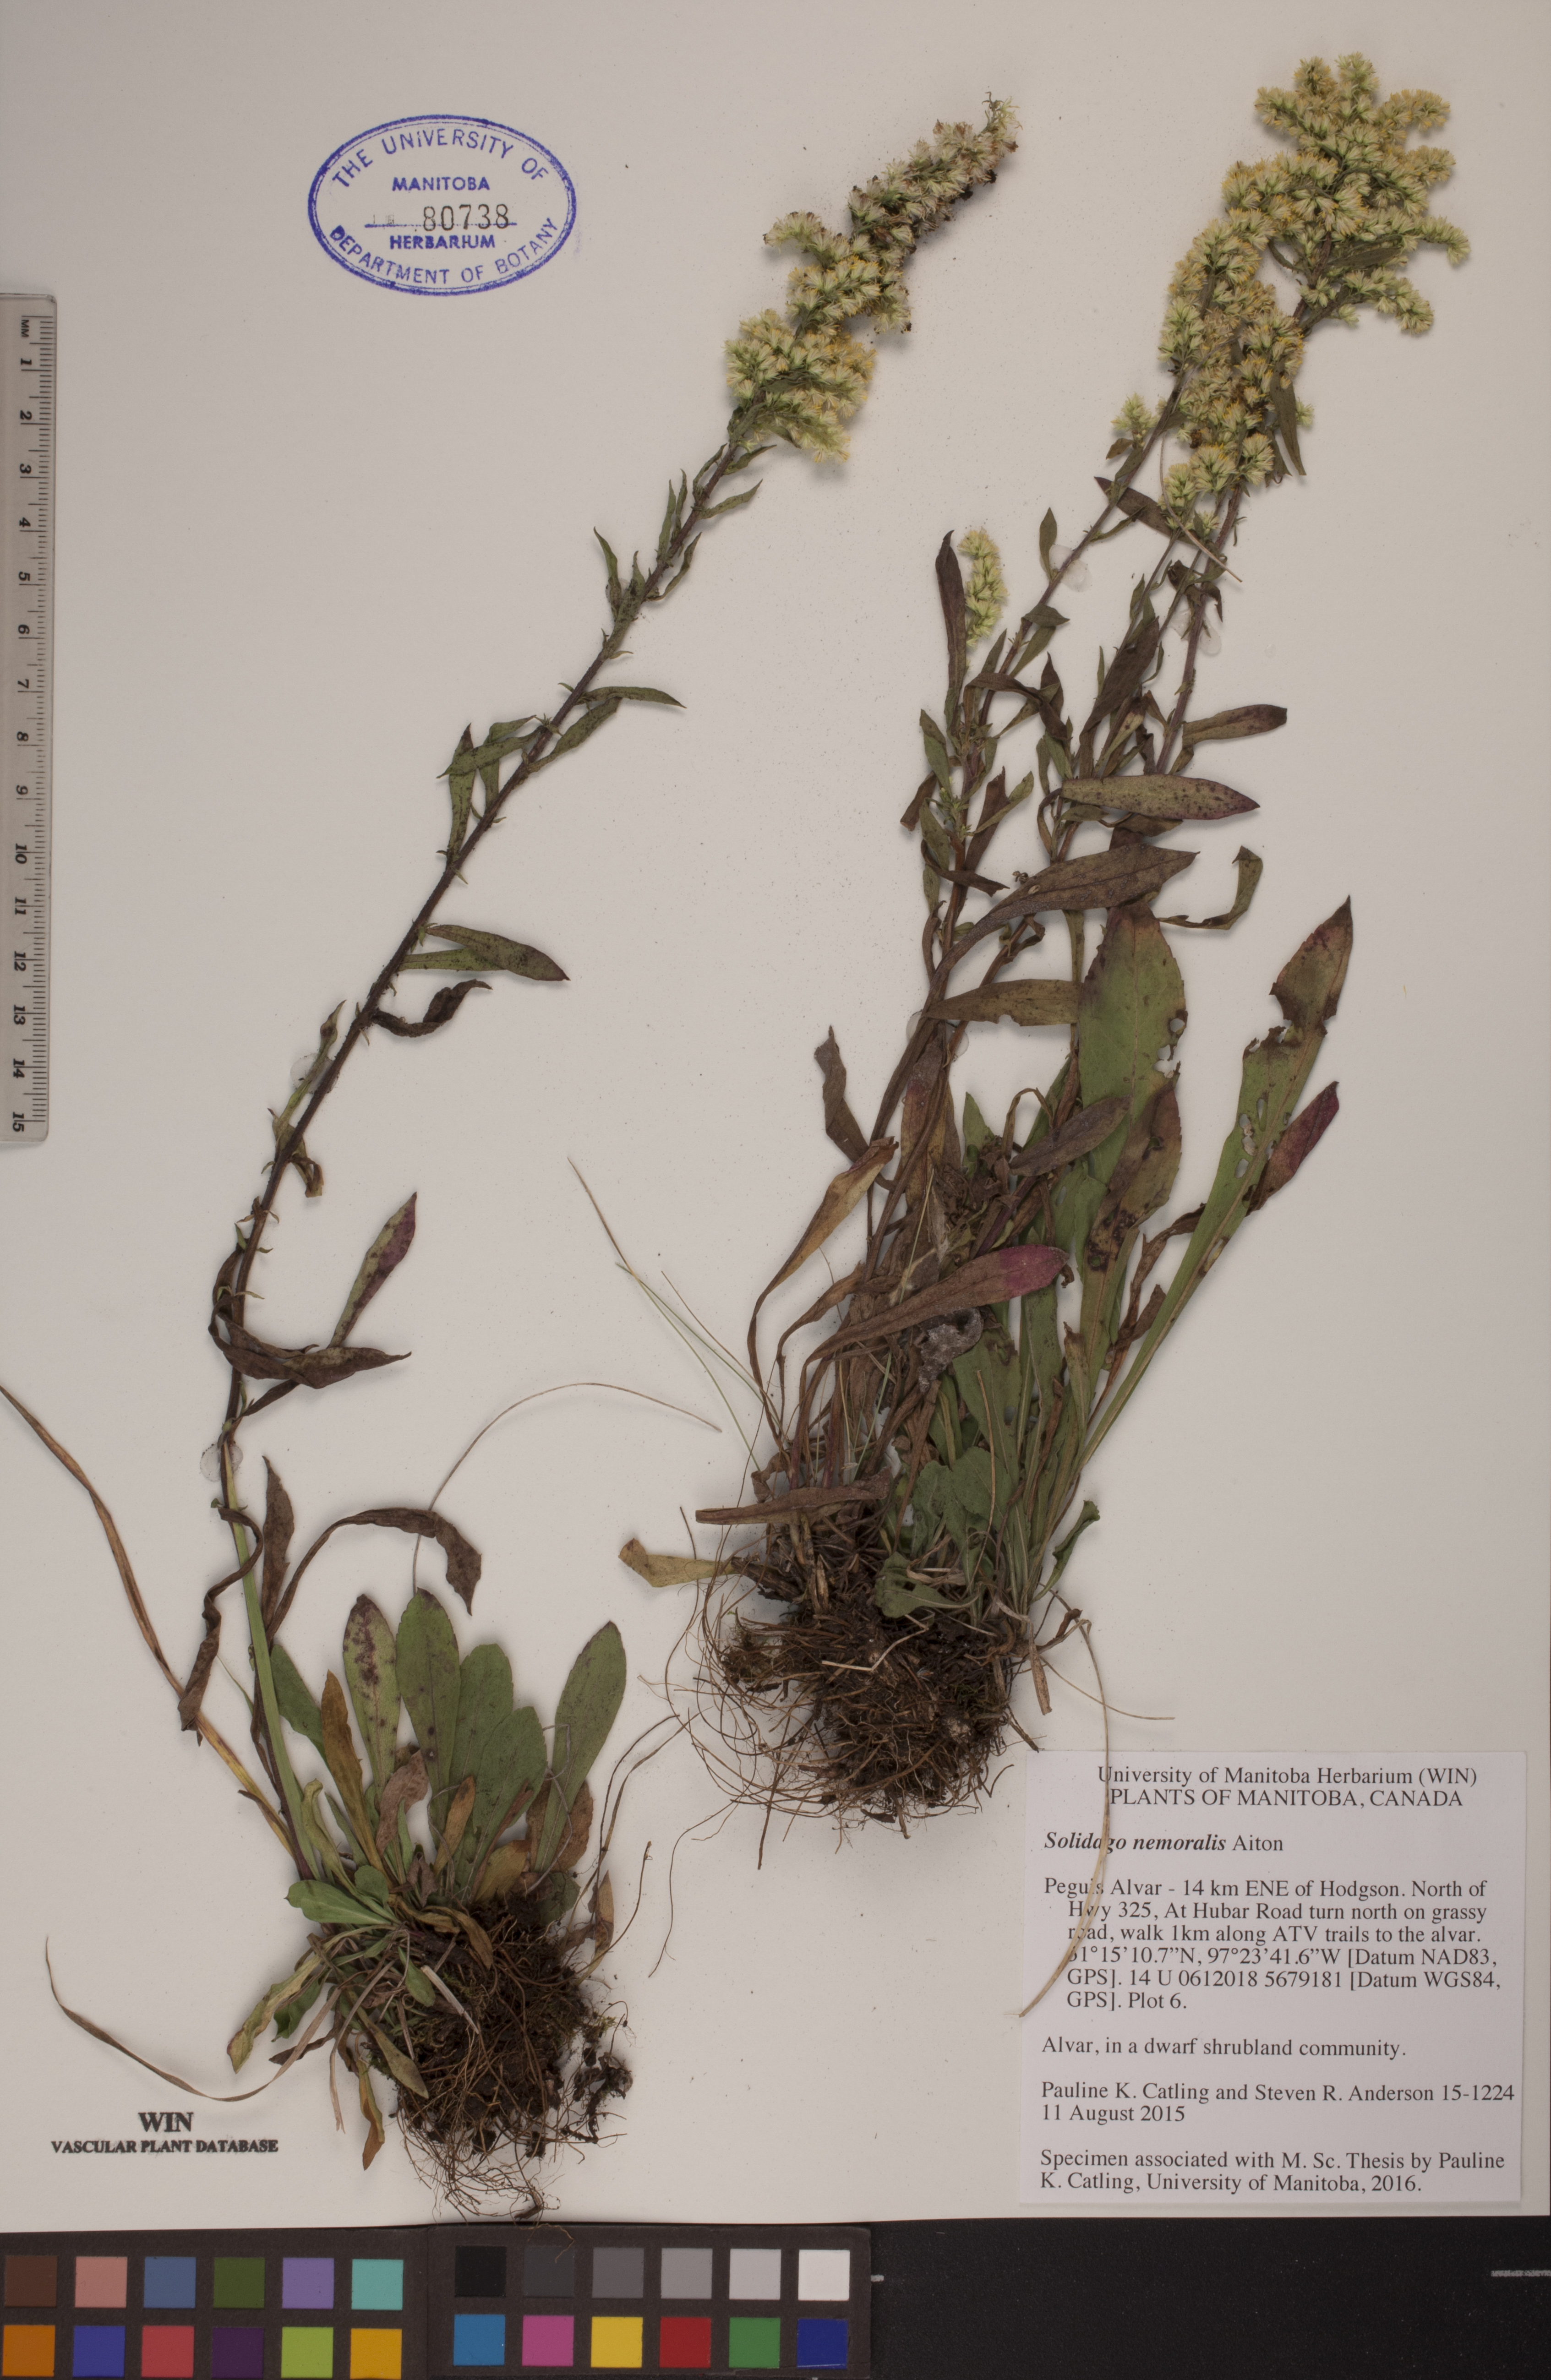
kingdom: Plantae
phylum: Tracheophyta
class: Magnoliopsida
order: Asterales
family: Asteraceae
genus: Solidago
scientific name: Solidago nemoralis
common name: Grey goldenrod
